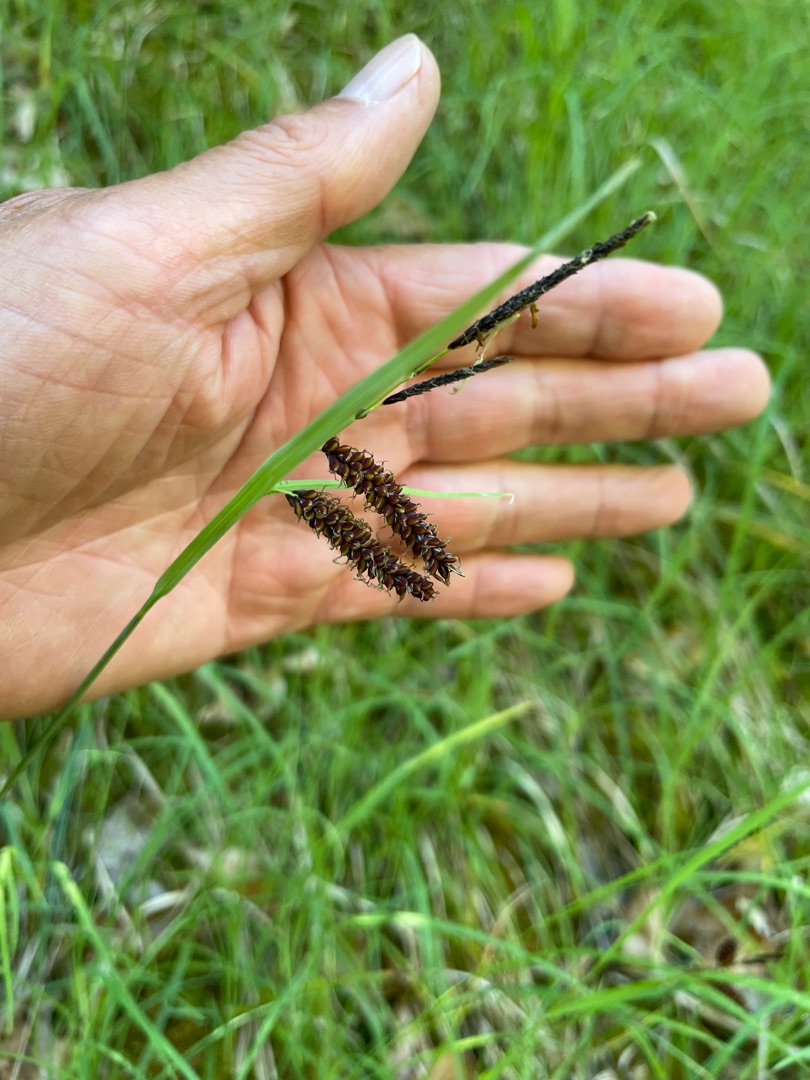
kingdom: Plantae
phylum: Tracheophyta
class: Liliopsida
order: Poales
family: Cyperaceae
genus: Carex
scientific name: Carex flacca
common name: Blågrøn star
